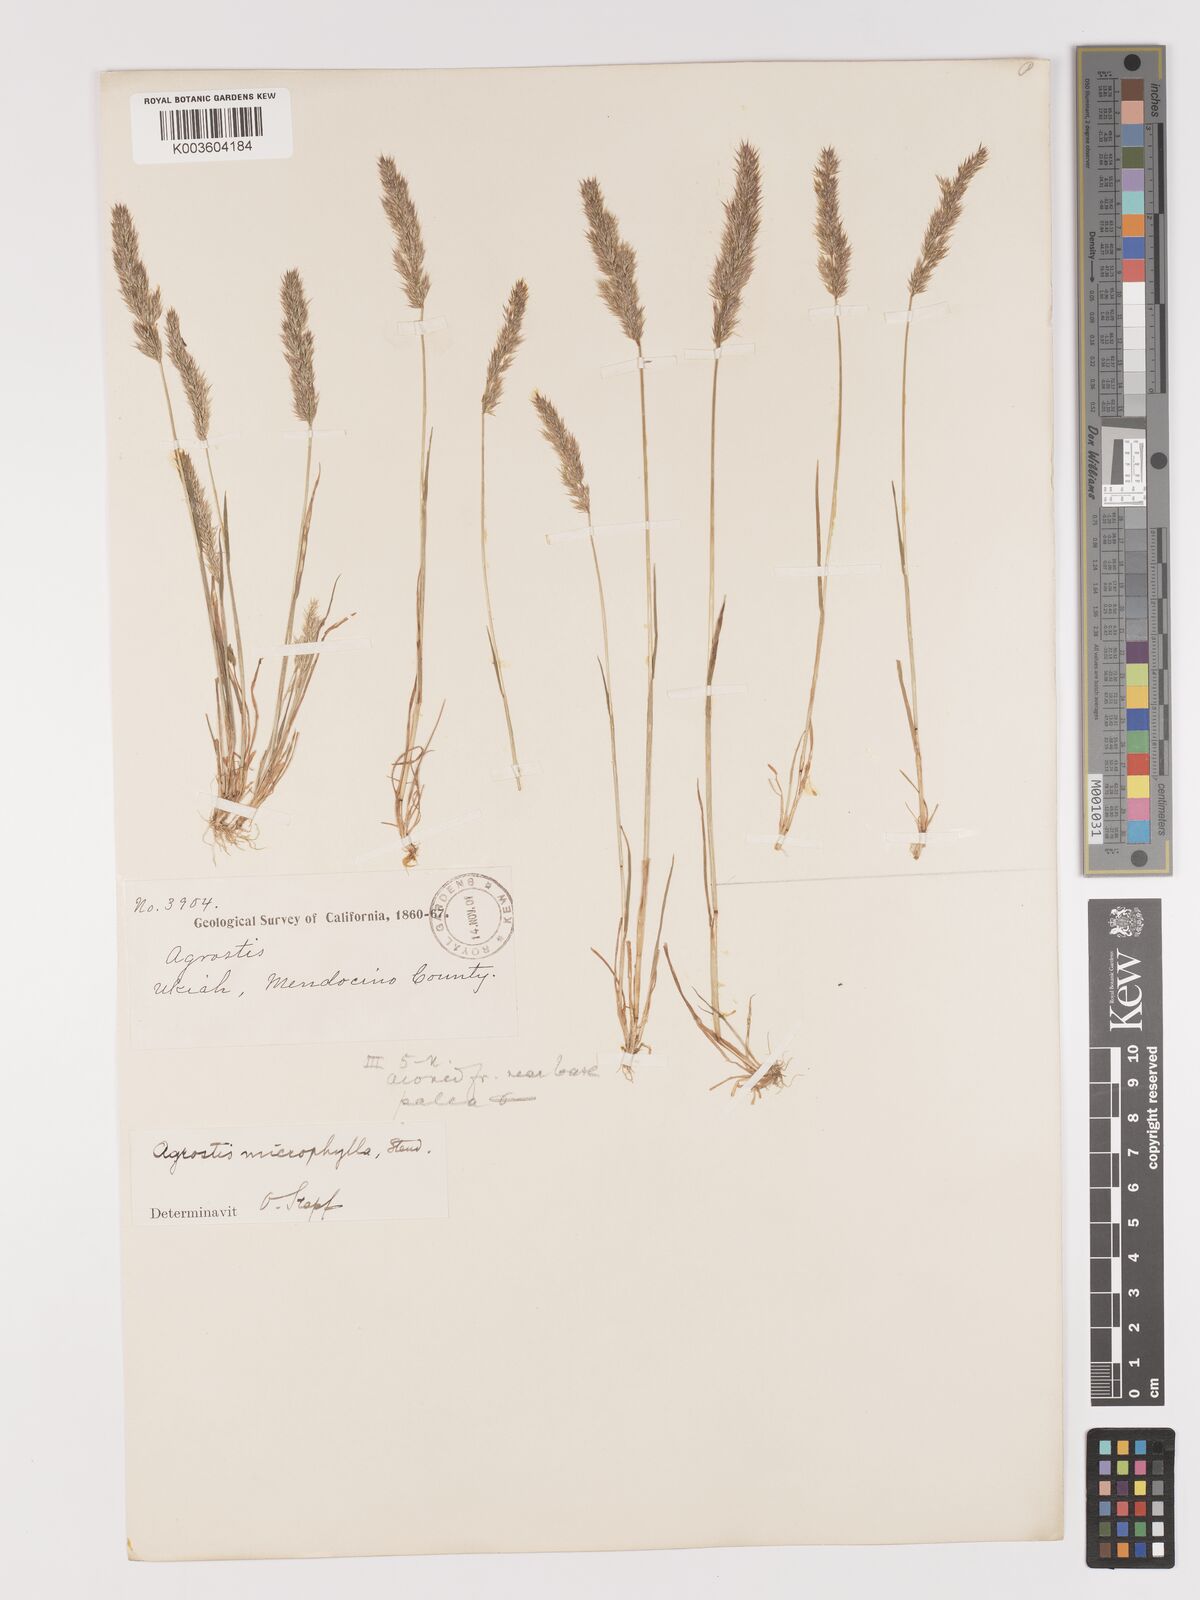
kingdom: Plantae
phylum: Tracheophyta
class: Liliopsida
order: Poales
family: Poaceae
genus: Agrostis
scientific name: Agrostis microphylla
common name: Small-leaf bent
